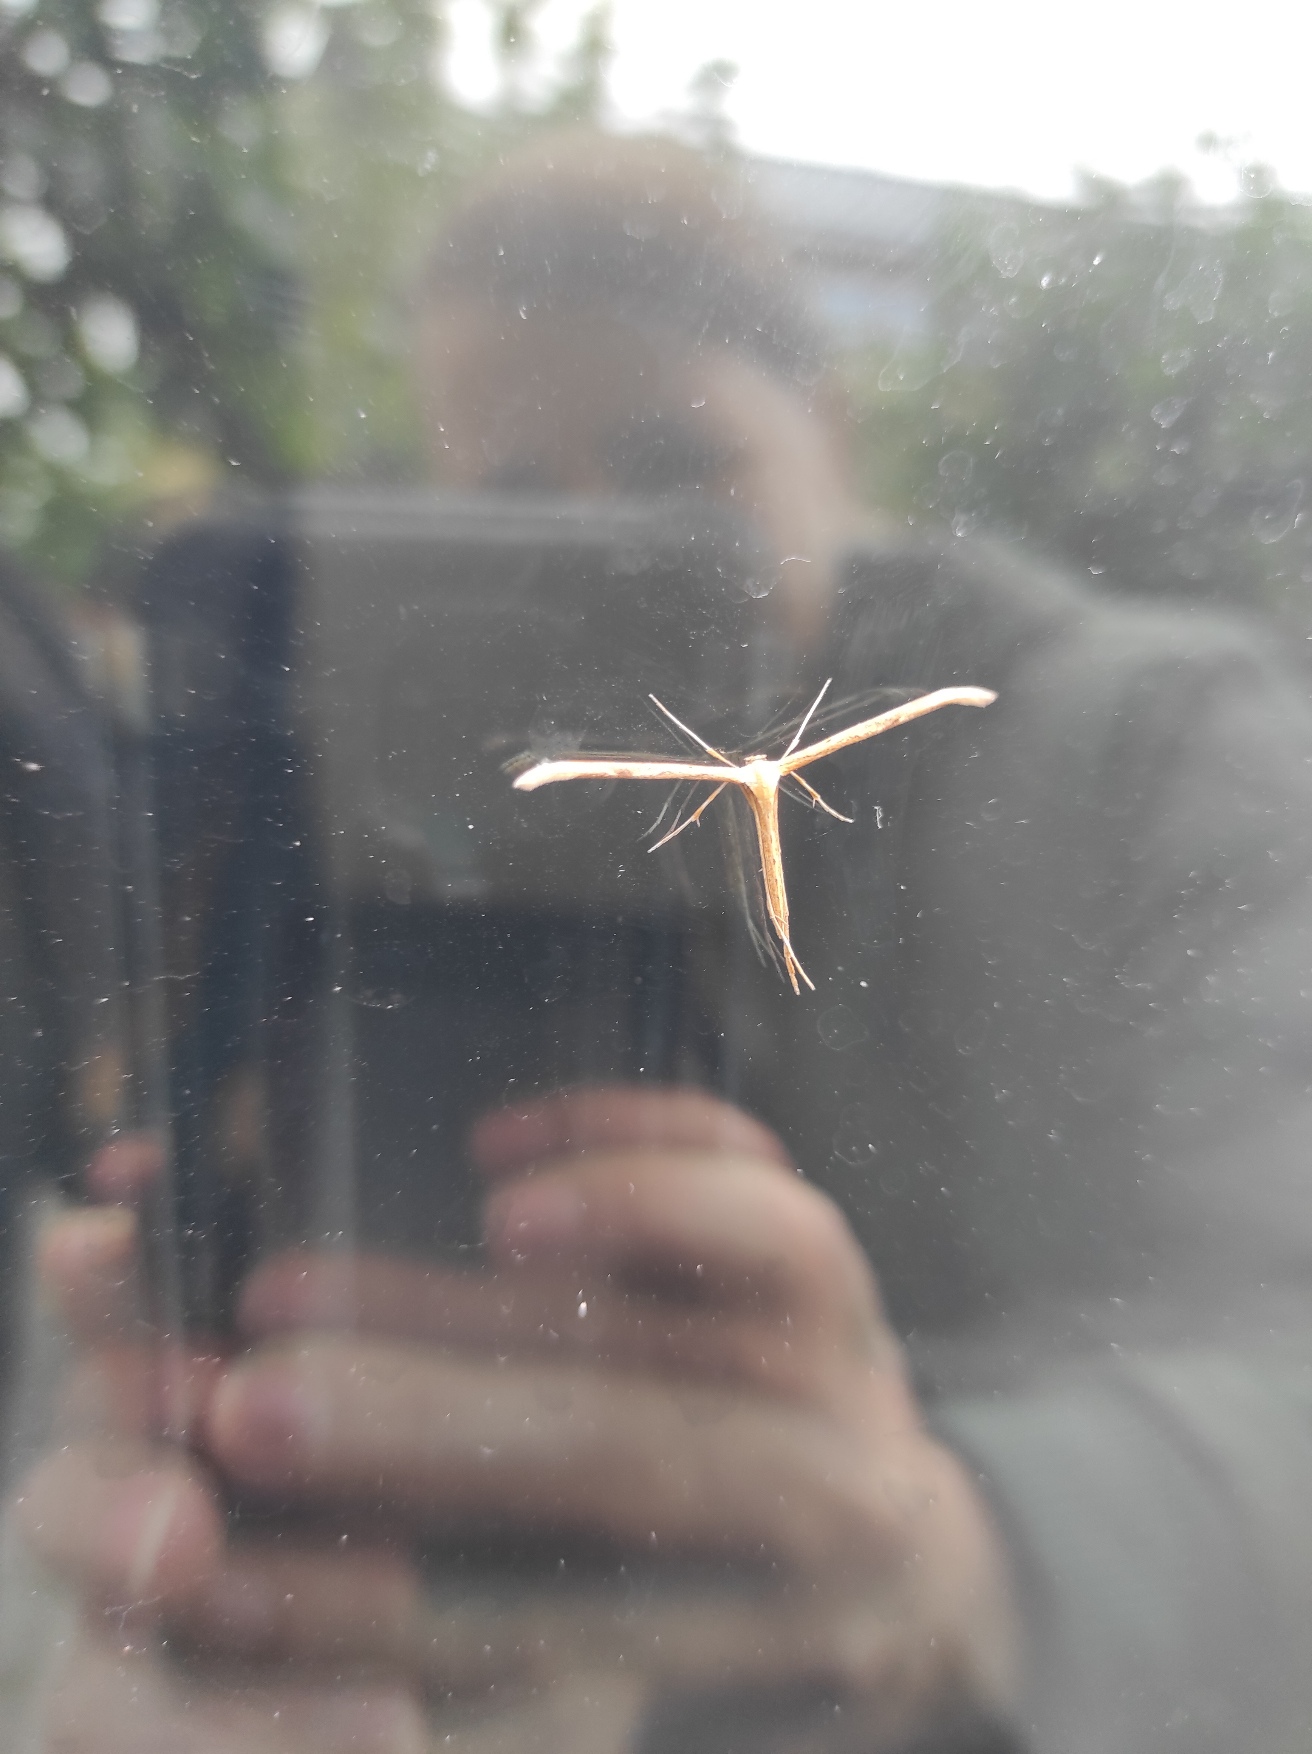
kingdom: Animalia
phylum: Arthropoda
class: Insecta
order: Lepidoptera
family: Pterophoridae
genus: Emmelina
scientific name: Emmelina monodactyla
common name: Snerlefjermøl
